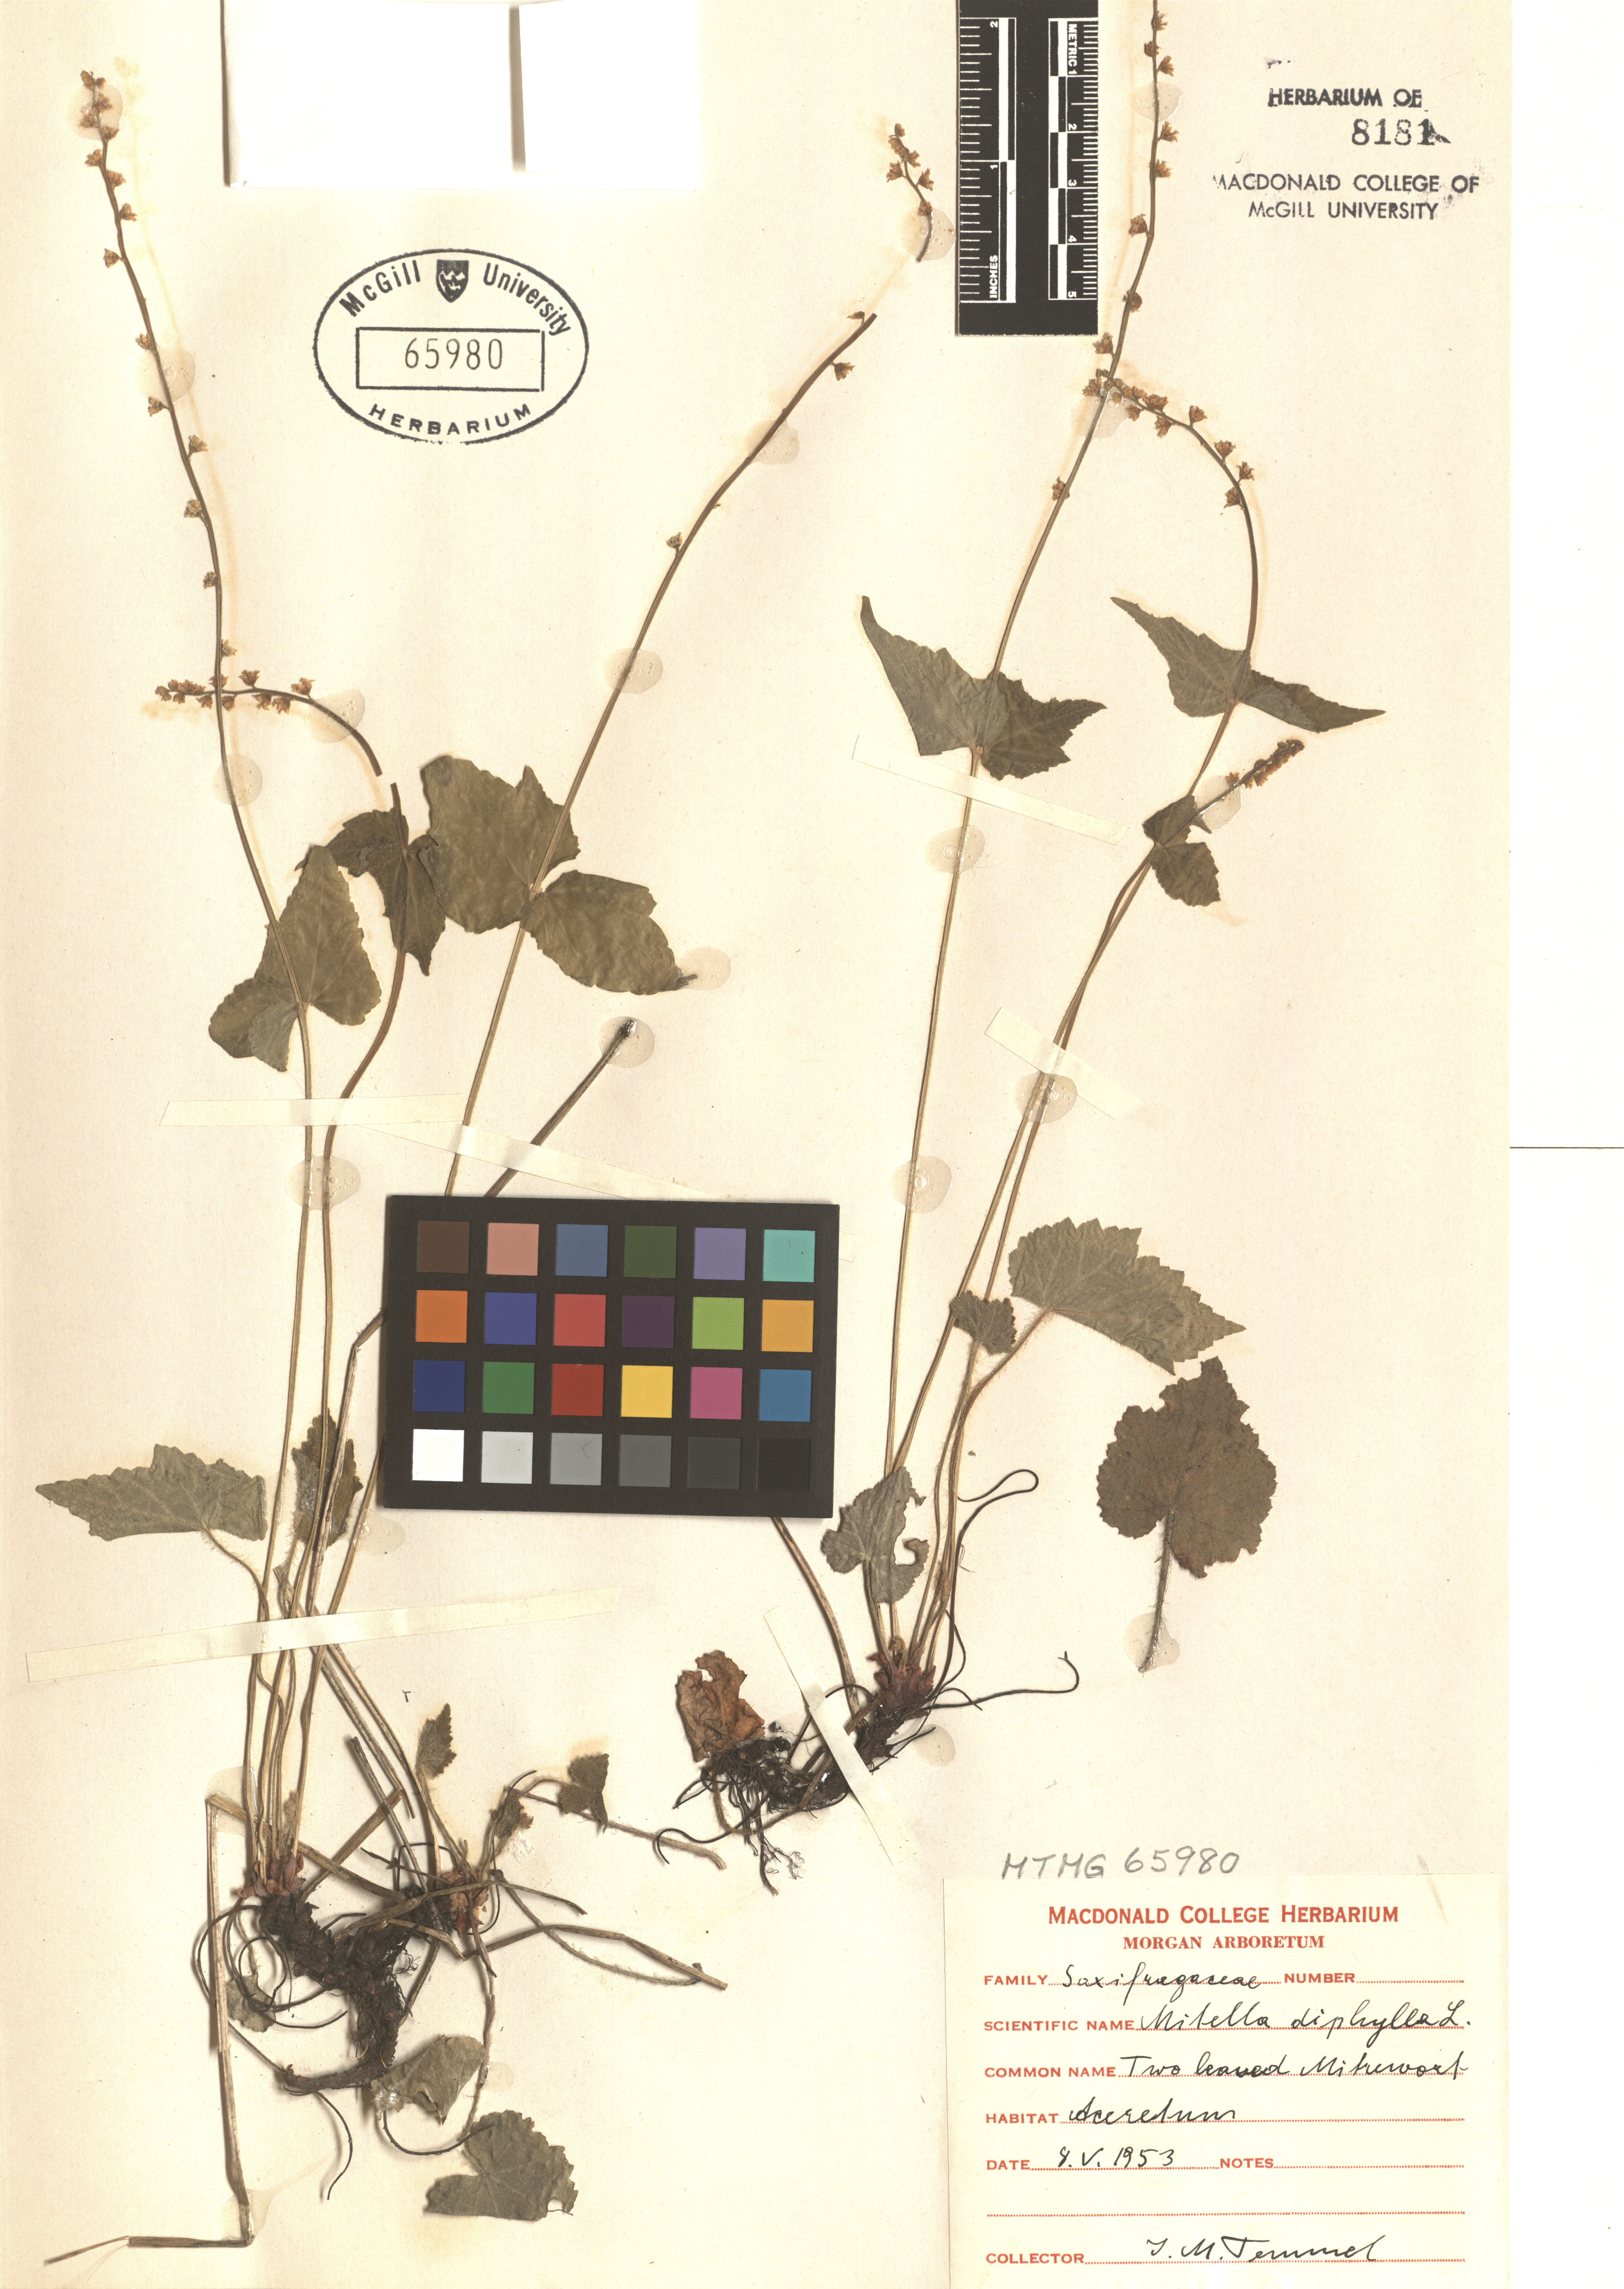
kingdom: Plantae
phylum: Tracheophyta
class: Magnoliopsida
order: Saxifragales
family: Saxifragaceae
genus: Mitella
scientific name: Mitella diphylla
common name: Coolwort
